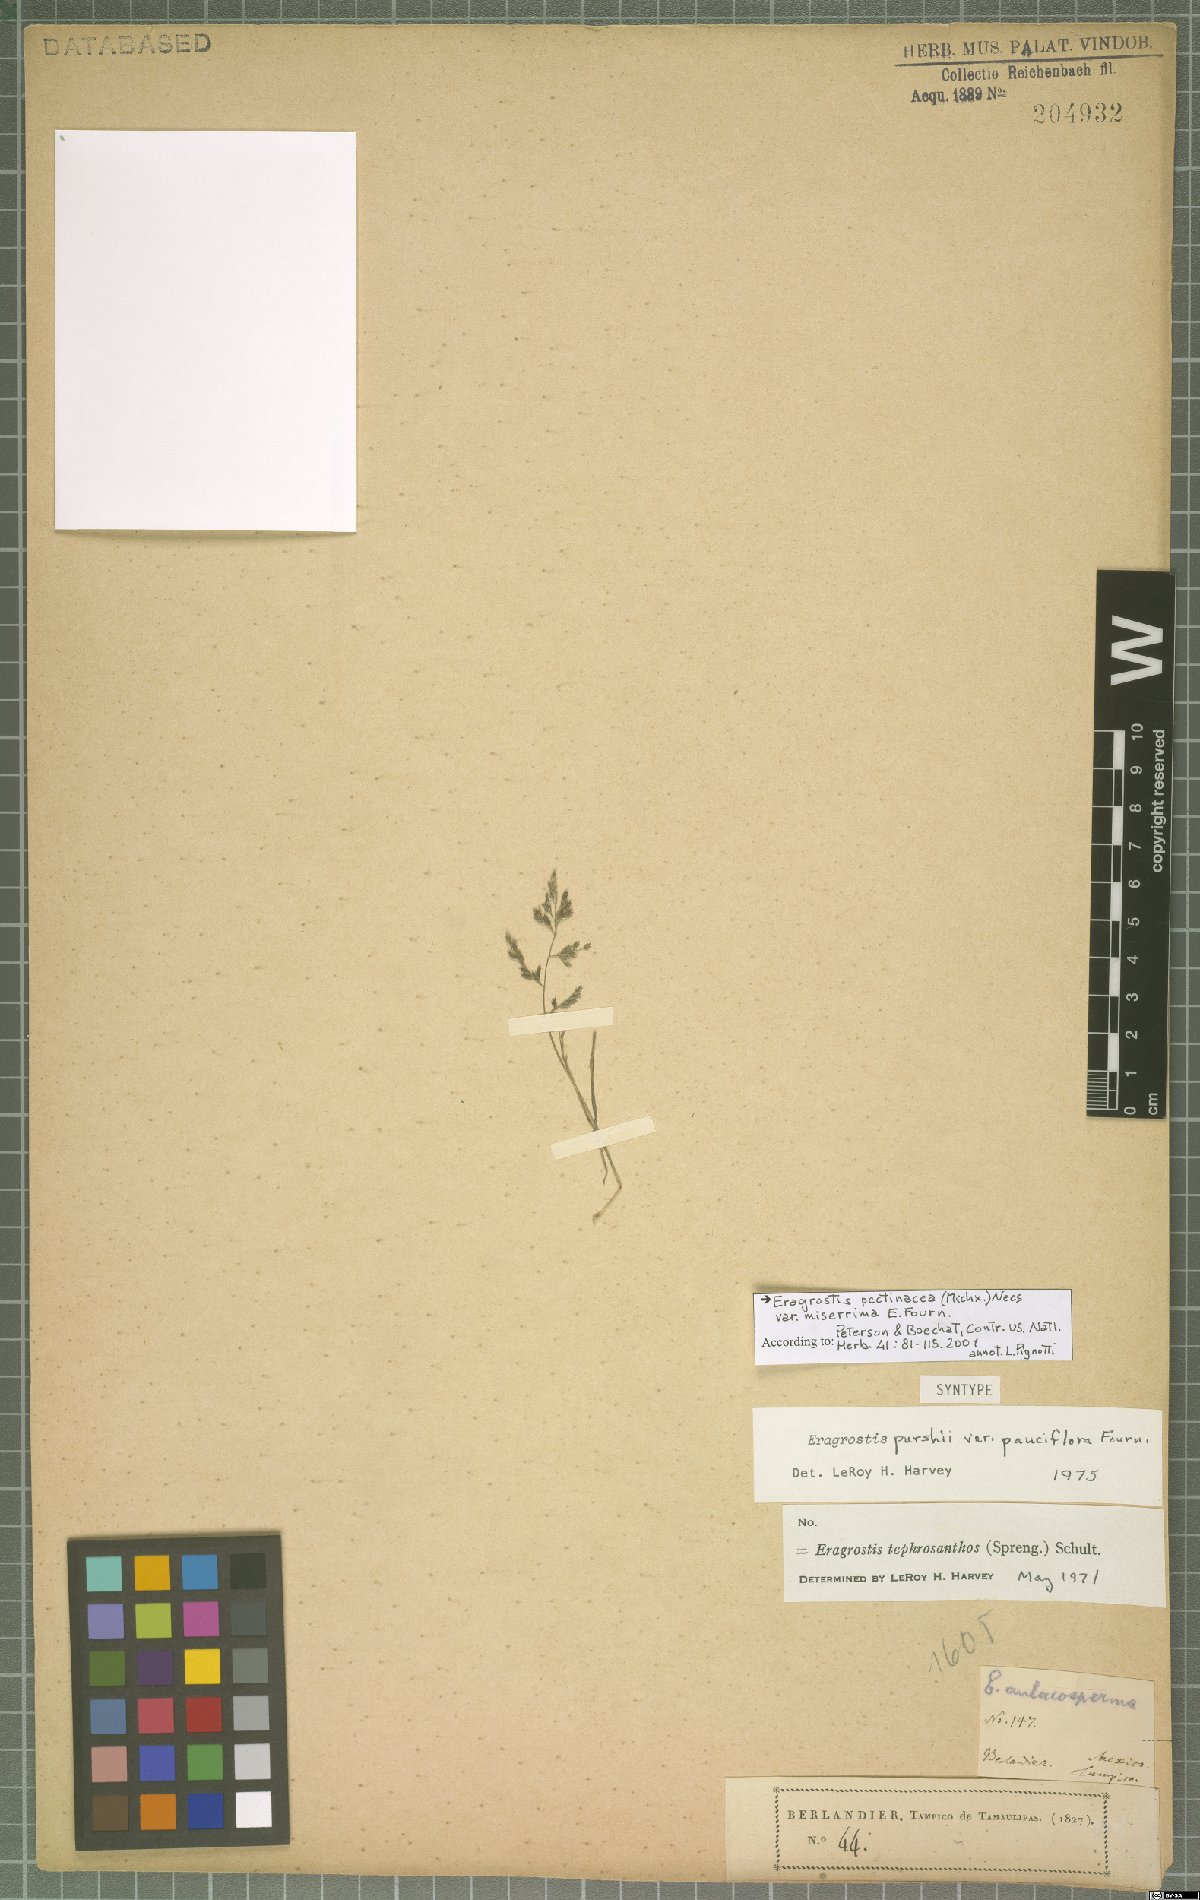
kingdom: Plantae
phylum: Tracheophyta
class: Liliopsida
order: Poales
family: Poaceae
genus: Eragrostis
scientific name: Eragrostis tephrosanthos
